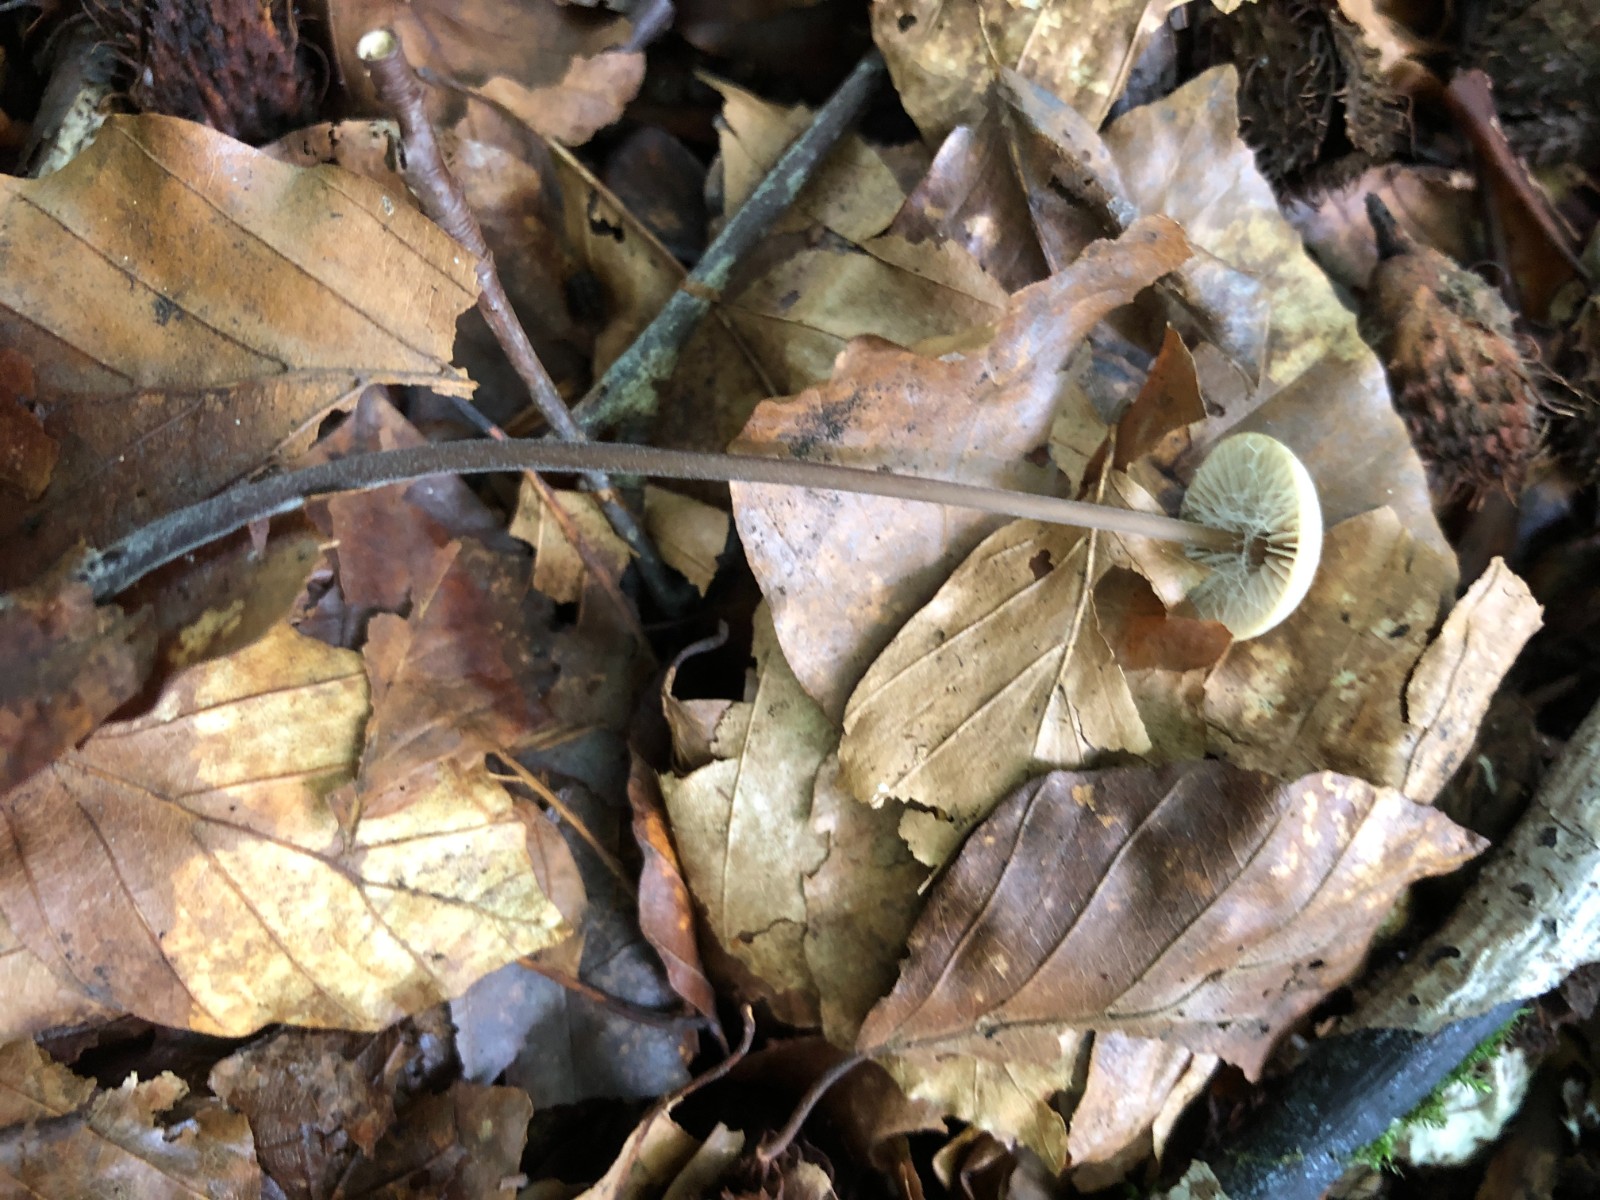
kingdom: Fungi
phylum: Basidiomycota
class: Agaricomycetes
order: Agaricales
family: Omphalotaceae
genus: Mycetinis
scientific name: Mycetinis alliaceus
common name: stor løghat
